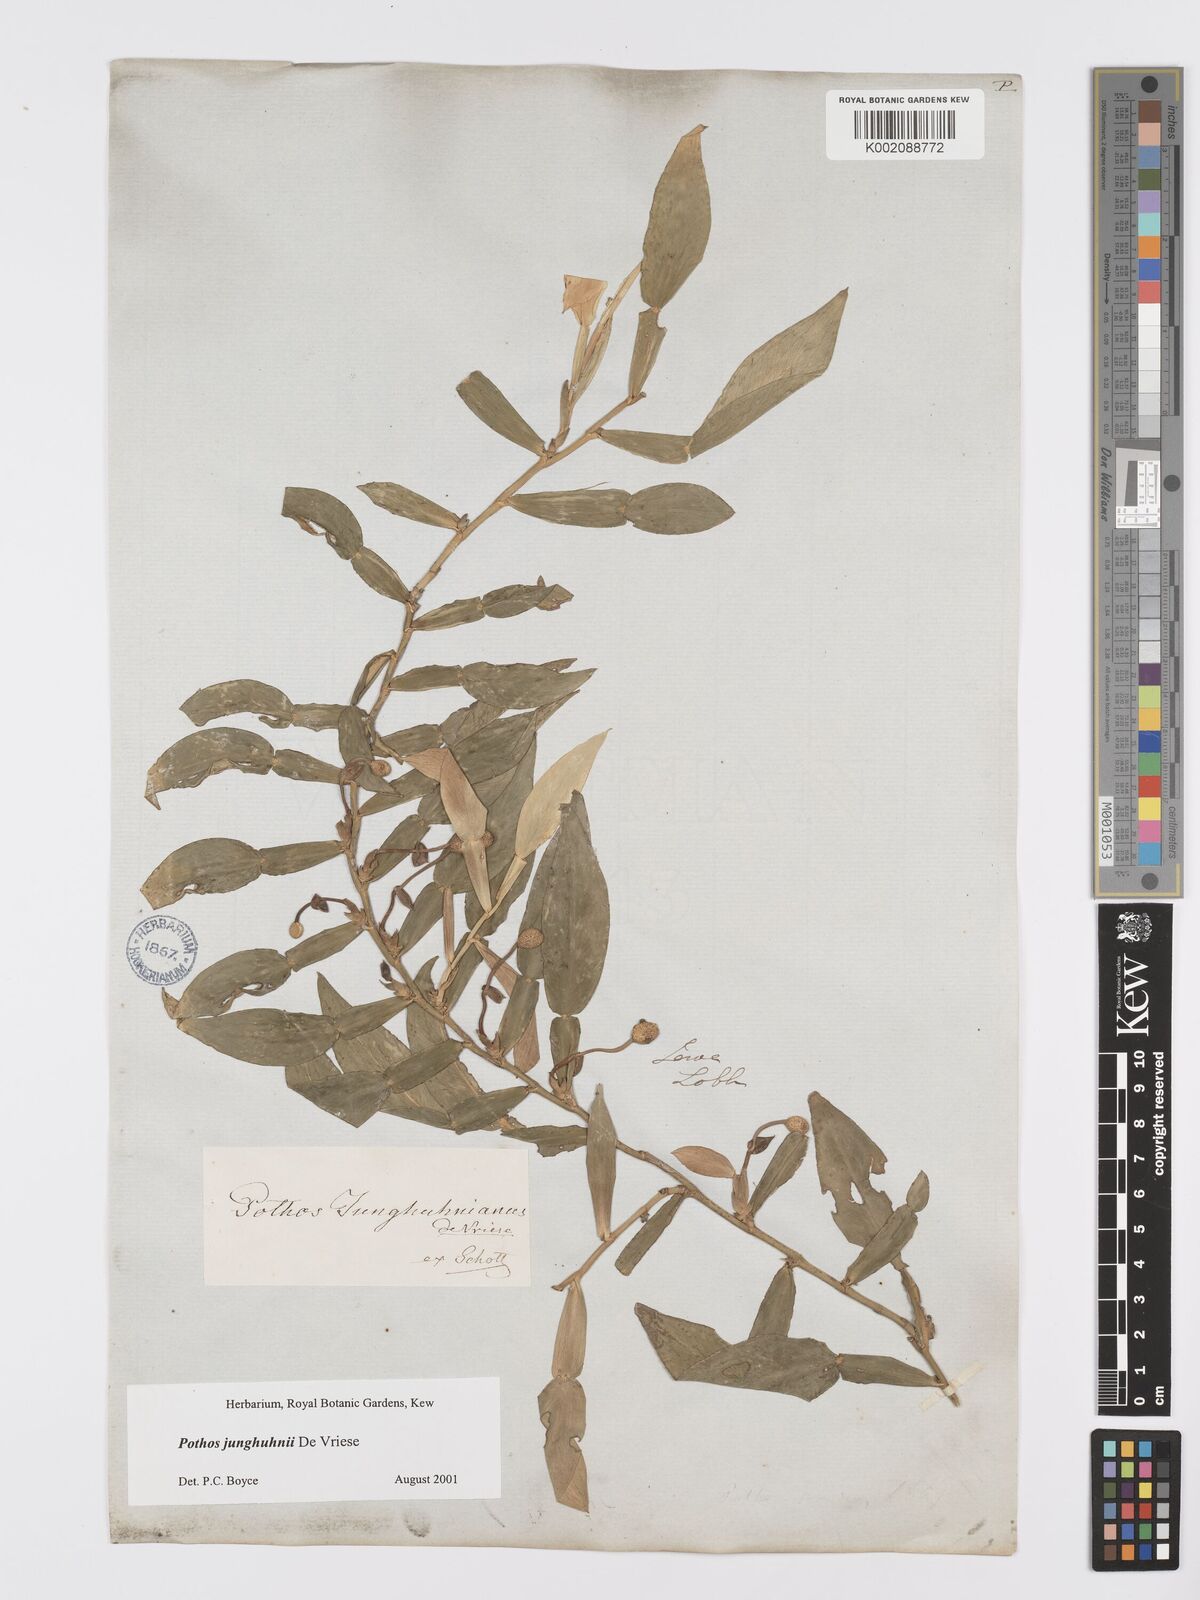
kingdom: Plantae
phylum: Tracheophyta
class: Liliopsida
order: Alismatales
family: Araceae
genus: Pothos
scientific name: Pothos junghuhnii
